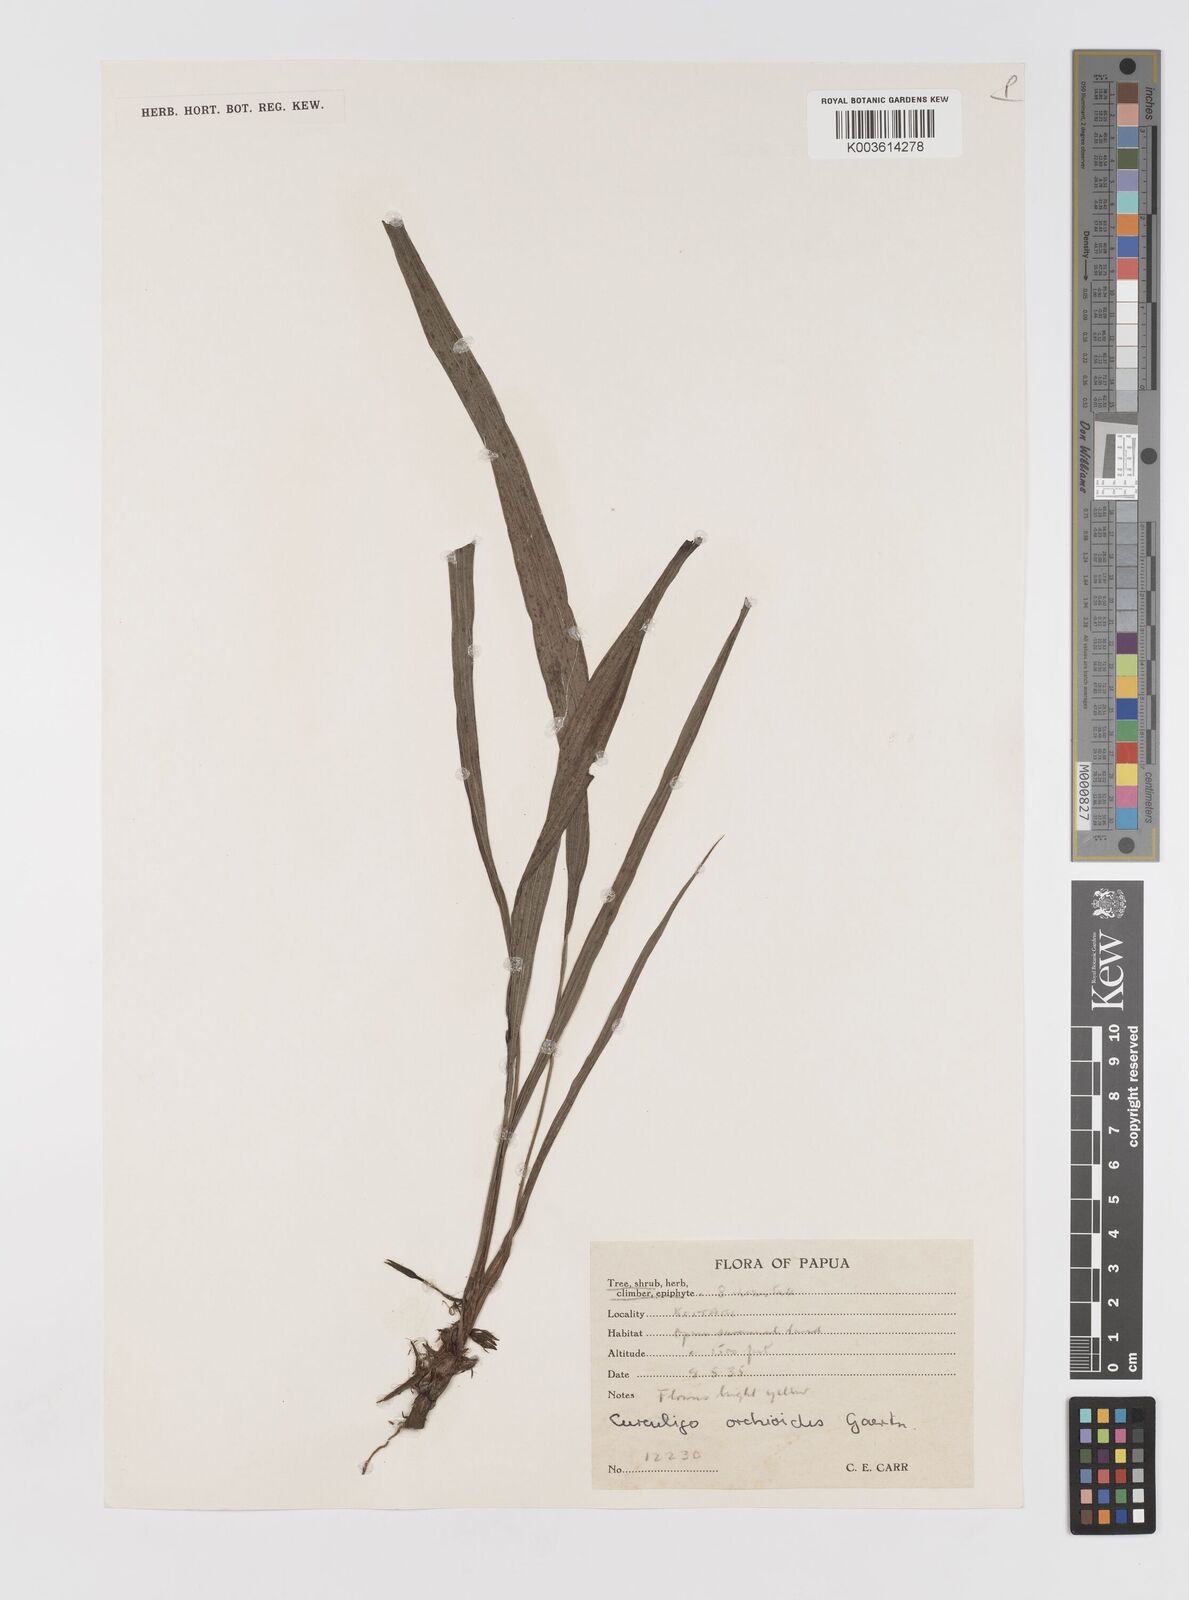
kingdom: Plantae
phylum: Tracheophyta
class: Liliopsida
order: Asparagales
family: Hypoxidaceae
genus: Curculigo
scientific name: Curculigo orchioides
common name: Golden eye-grass
